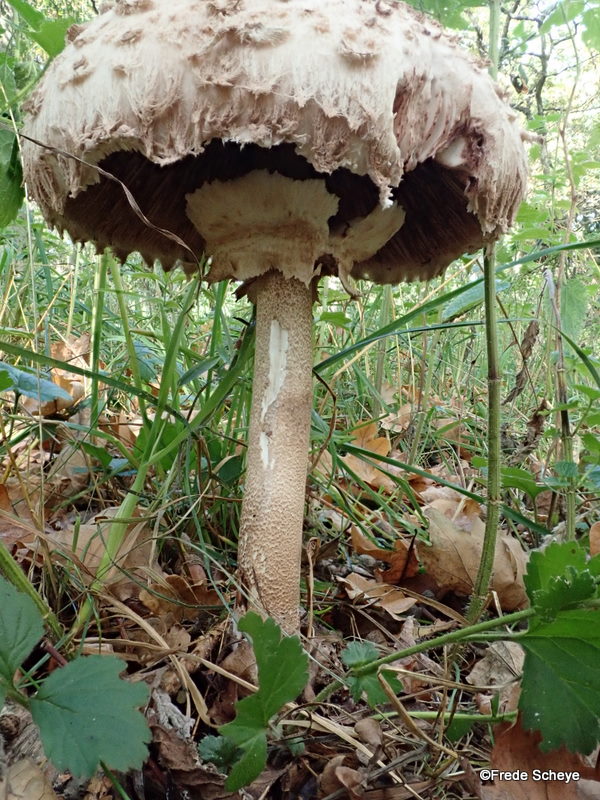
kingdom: Fungi
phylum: Basidiomycota
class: Agaricomycetes
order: Agaricales
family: Agaricaceae
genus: Macrolepiota
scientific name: Macrolepiota procera
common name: stor kæmpeparasolhat
